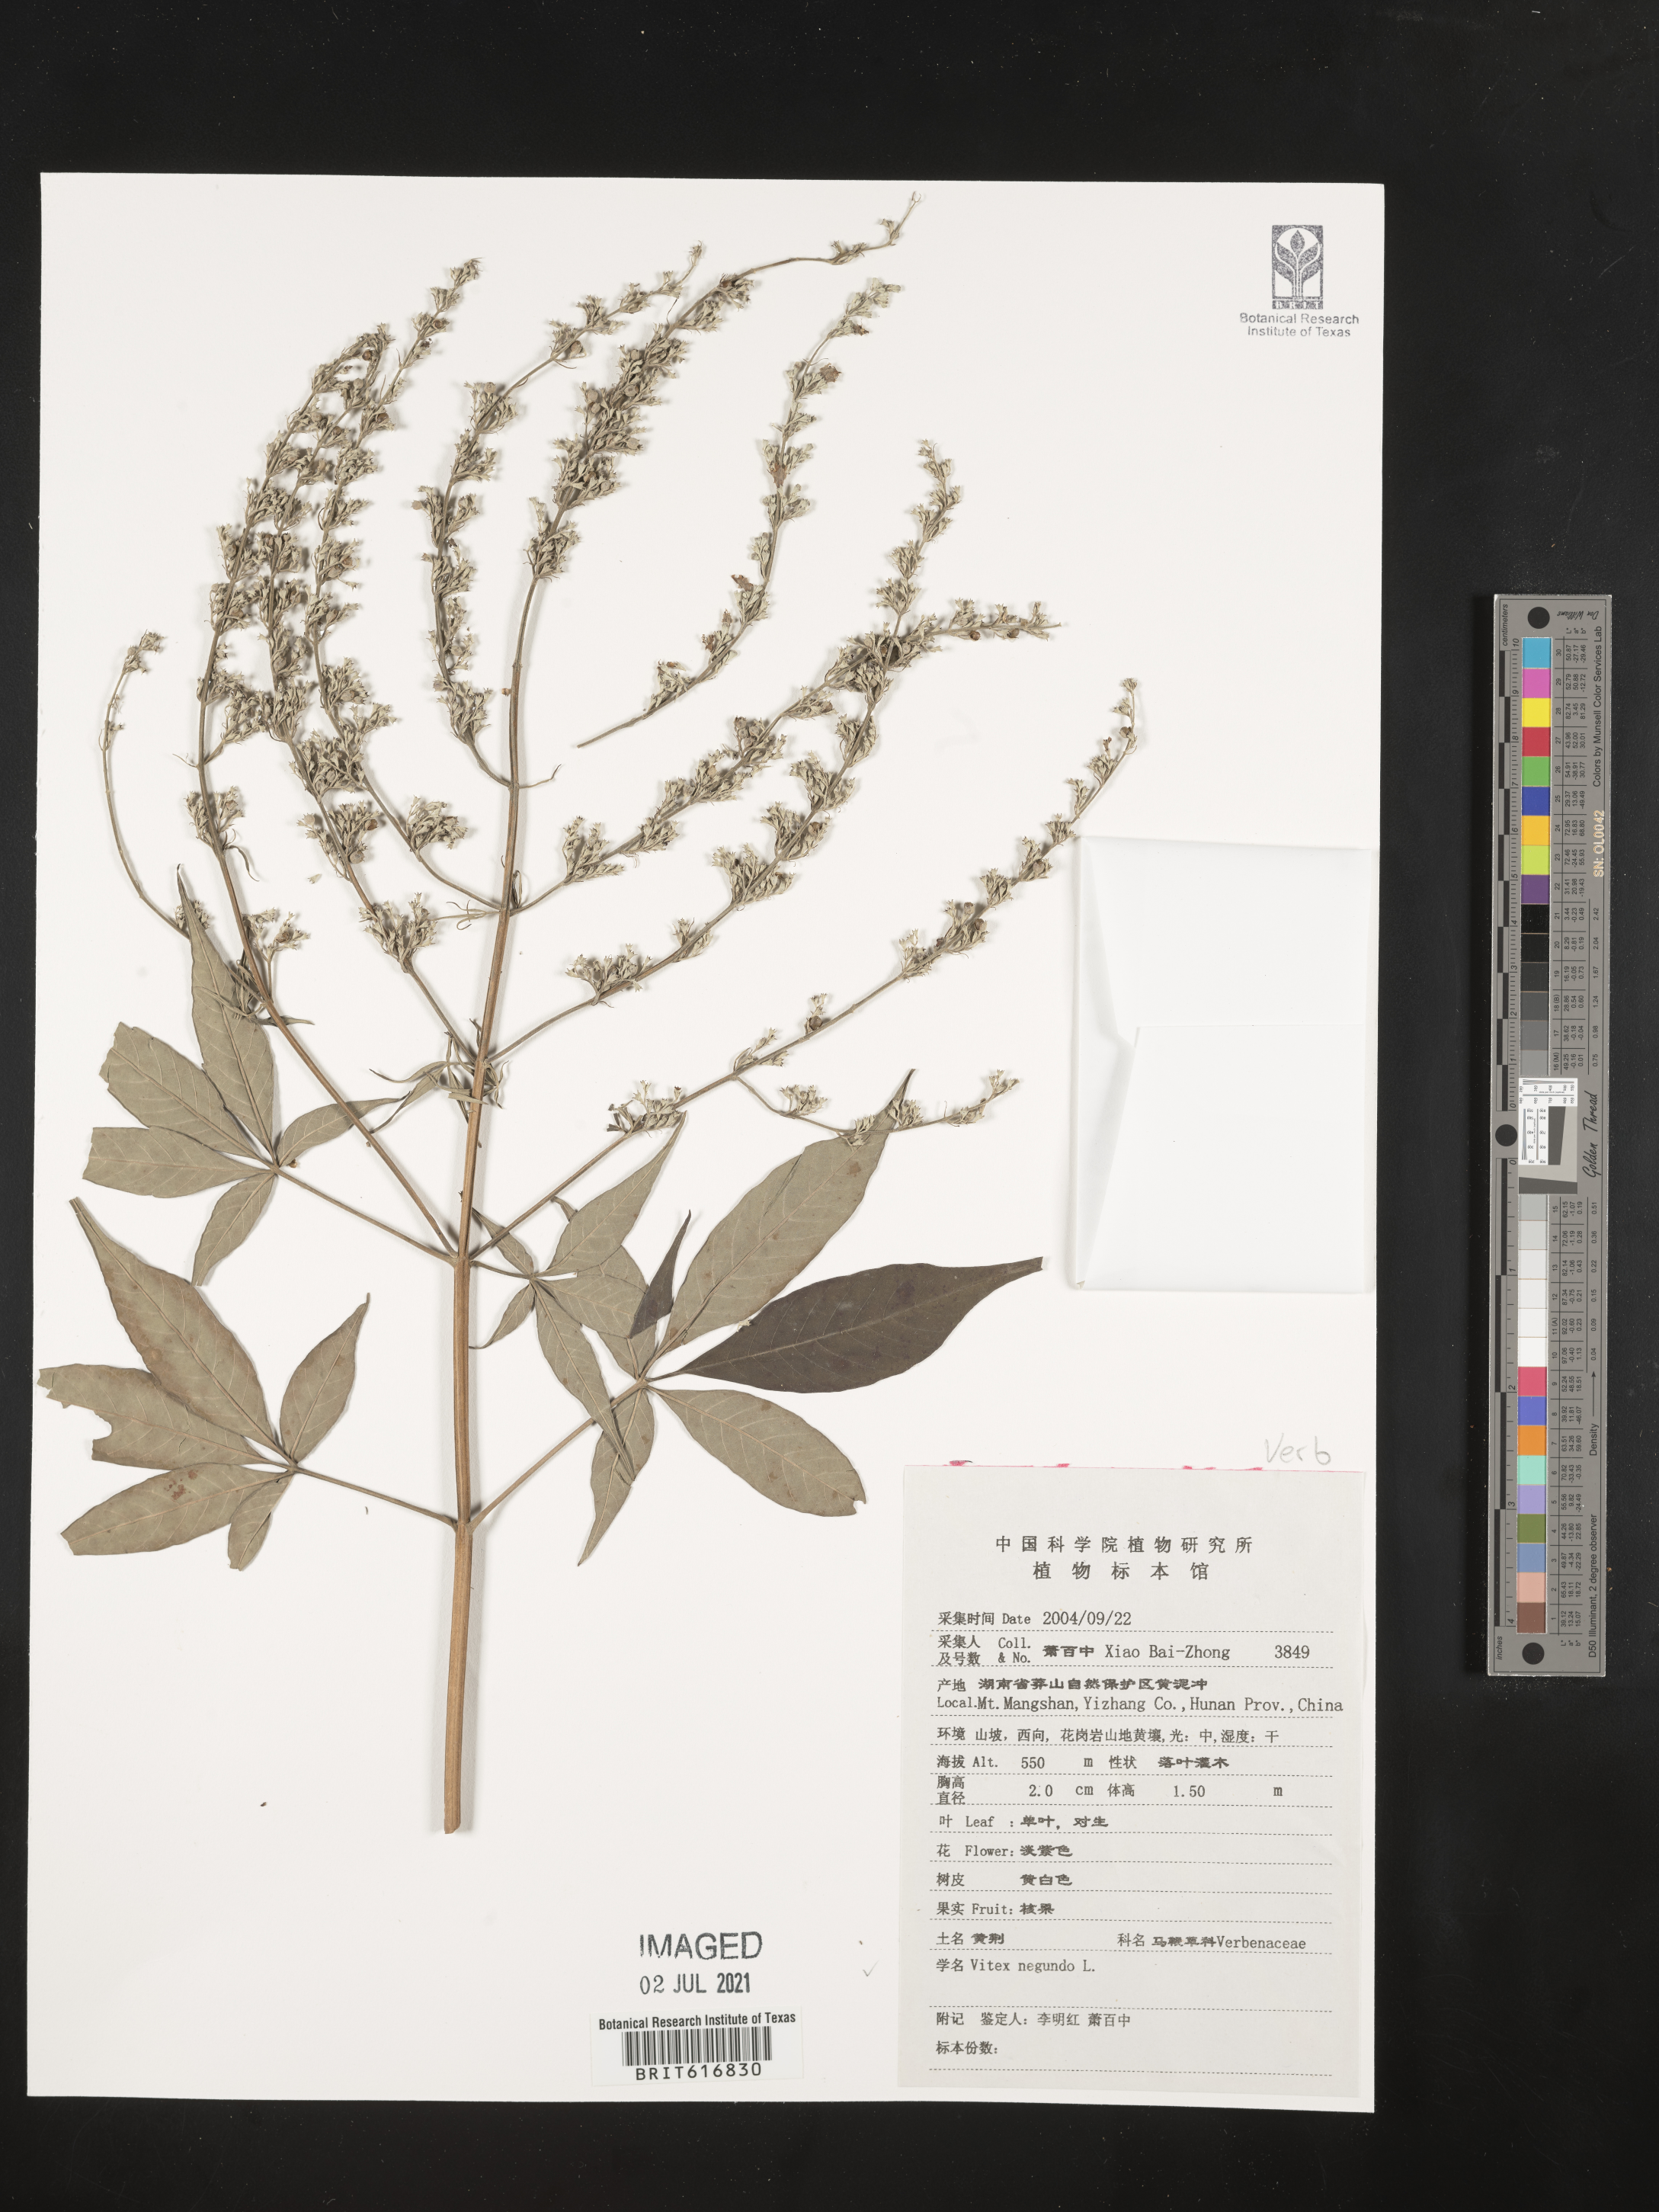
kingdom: Plantae
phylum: Tracheophyta
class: Magnoliopsida
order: Lamiales
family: Lamiaceae
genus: Vitex
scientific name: Vitex negundo
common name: Chinese chastetree
